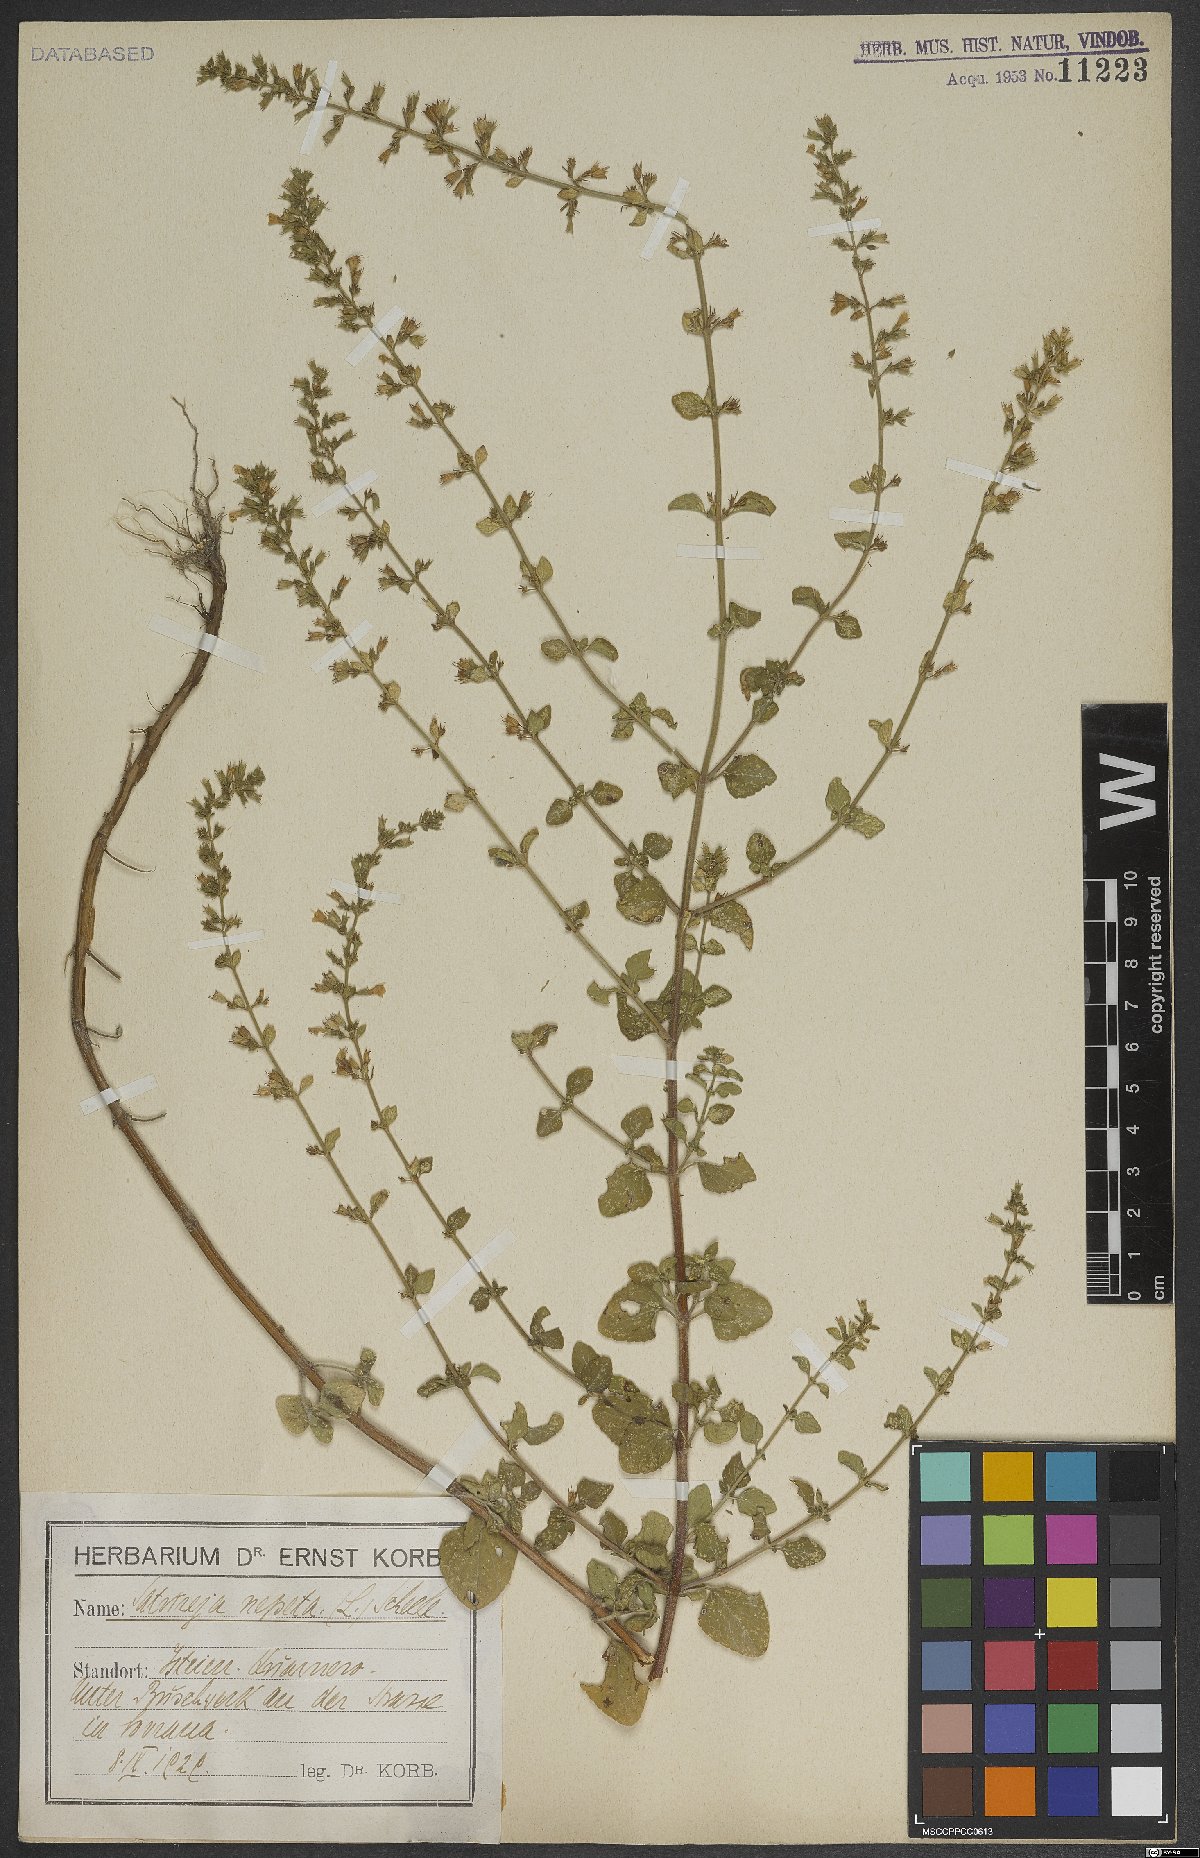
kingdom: Plantae
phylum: Tracheophyta
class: Magnoliopsida
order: Lamiales
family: Lamiaceae
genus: Clinopodium
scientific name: Clinopodium nepeta
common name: Lesser calamint
